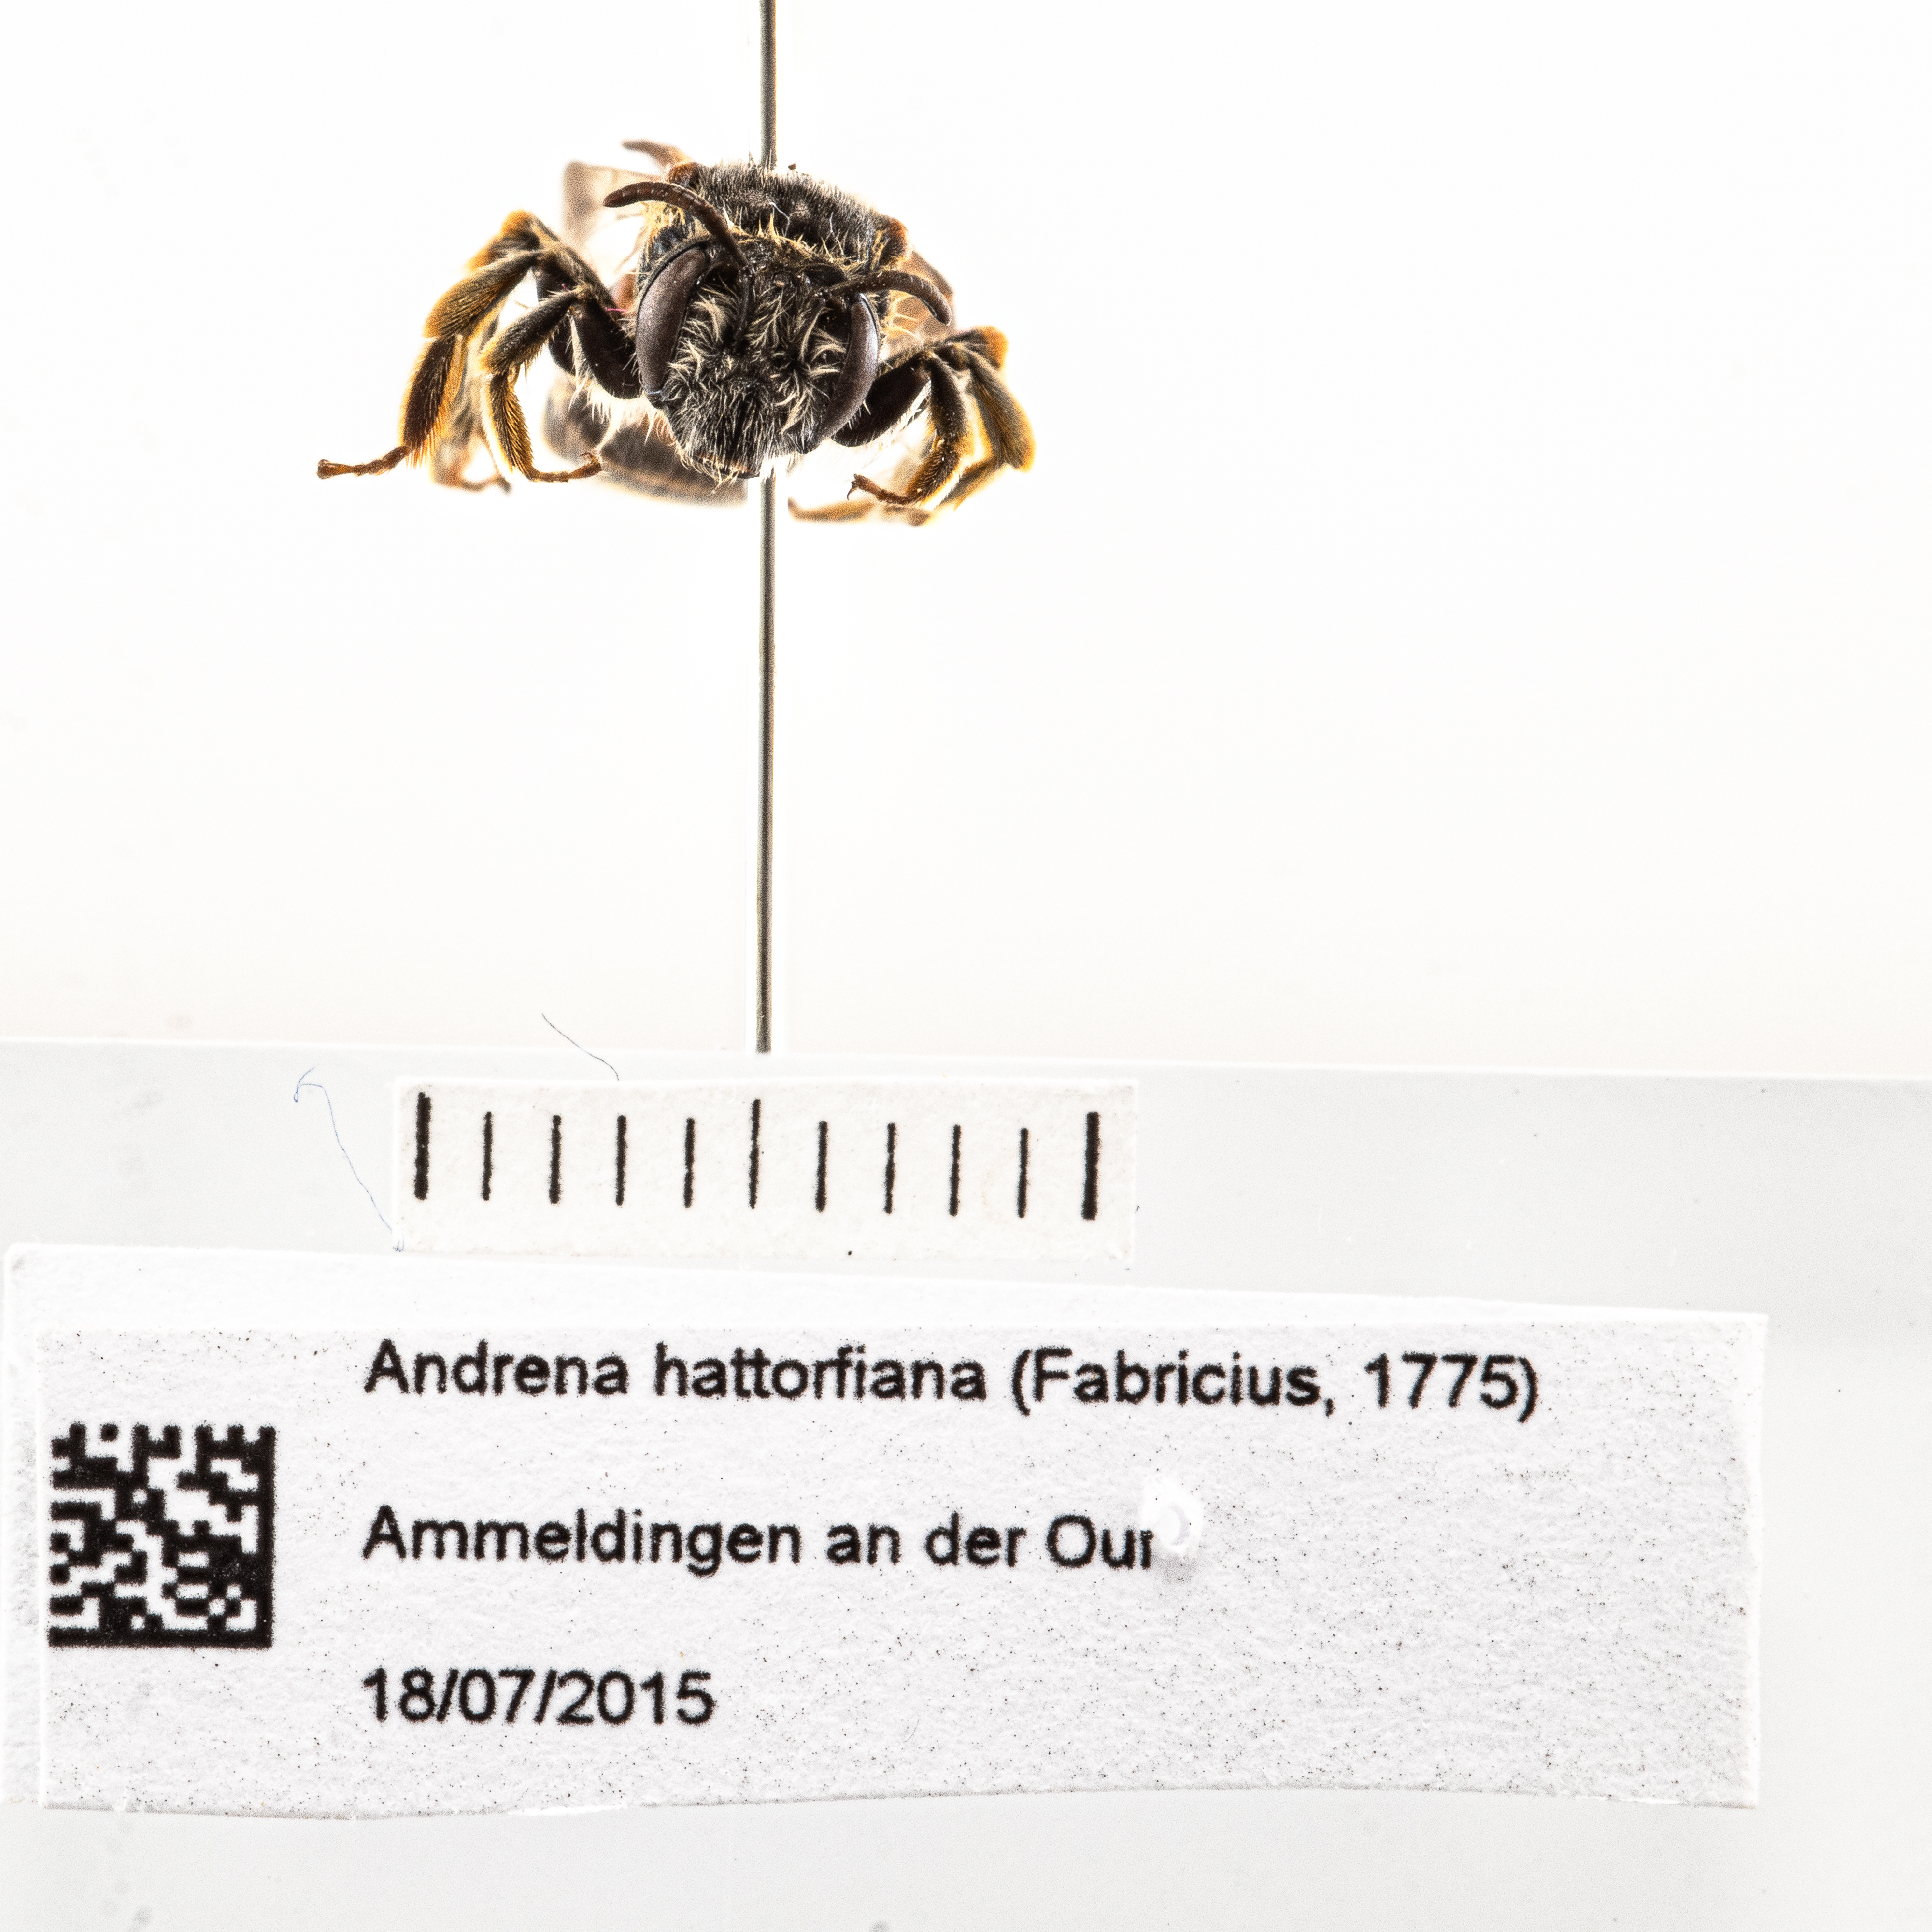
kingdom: Animalia
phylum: Arthropoda
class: Insecta
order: Hymenoptera
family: Andrenidae
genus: Andrena
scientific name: Andrena hattorfiana
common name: Large scabious mining bee
